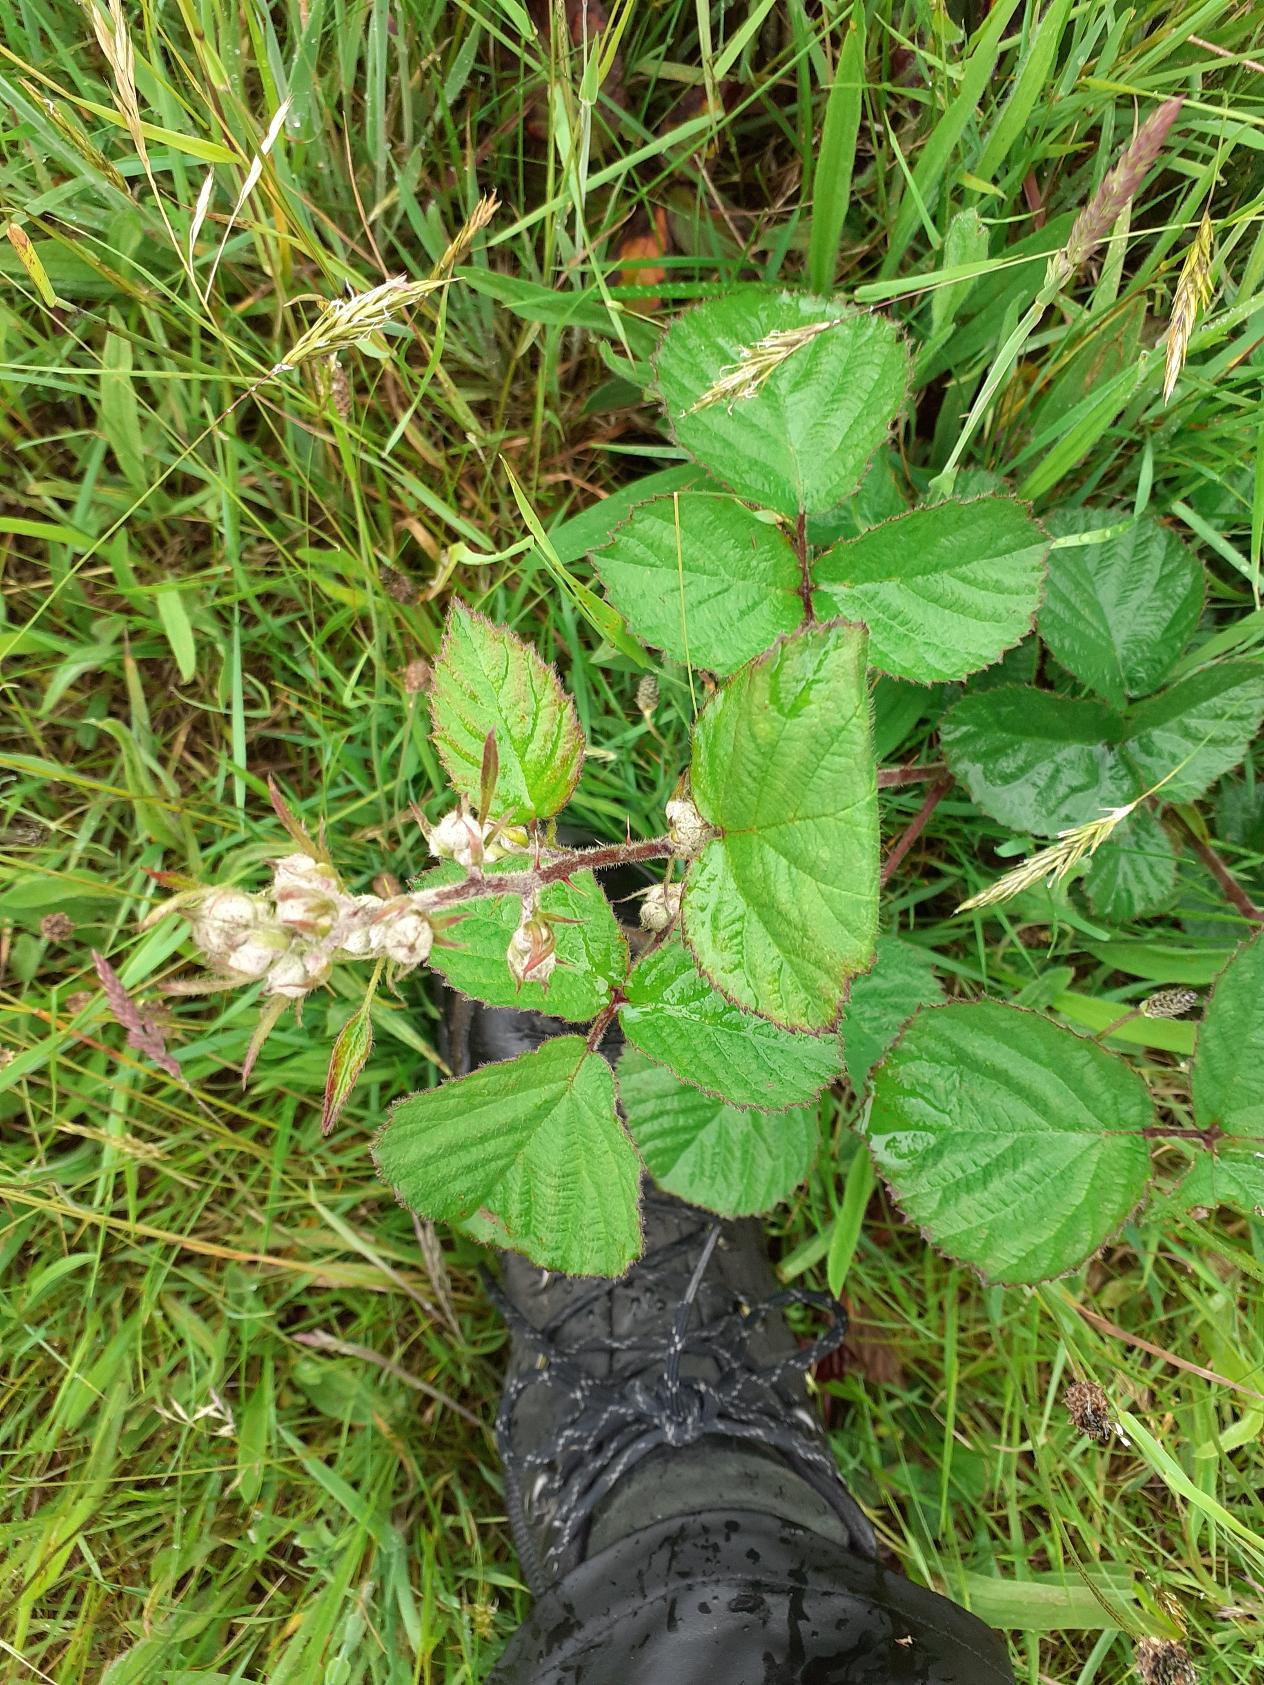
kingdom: Plantae
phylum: Tracheophyta
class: Magnoliopsida
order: Rosales
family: Rosaceae
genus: Rubus
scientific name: Rubus
